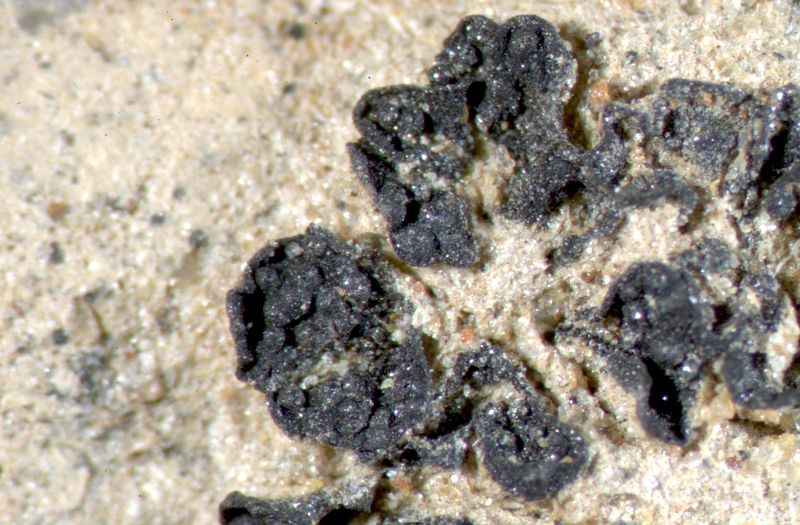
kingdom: Fungi
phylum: Ascomycota
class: Eurotiomycetes
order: Verrucariales
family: Verrucariaceae
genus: Catapyrenium
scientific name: Catapyrenium tenellum
